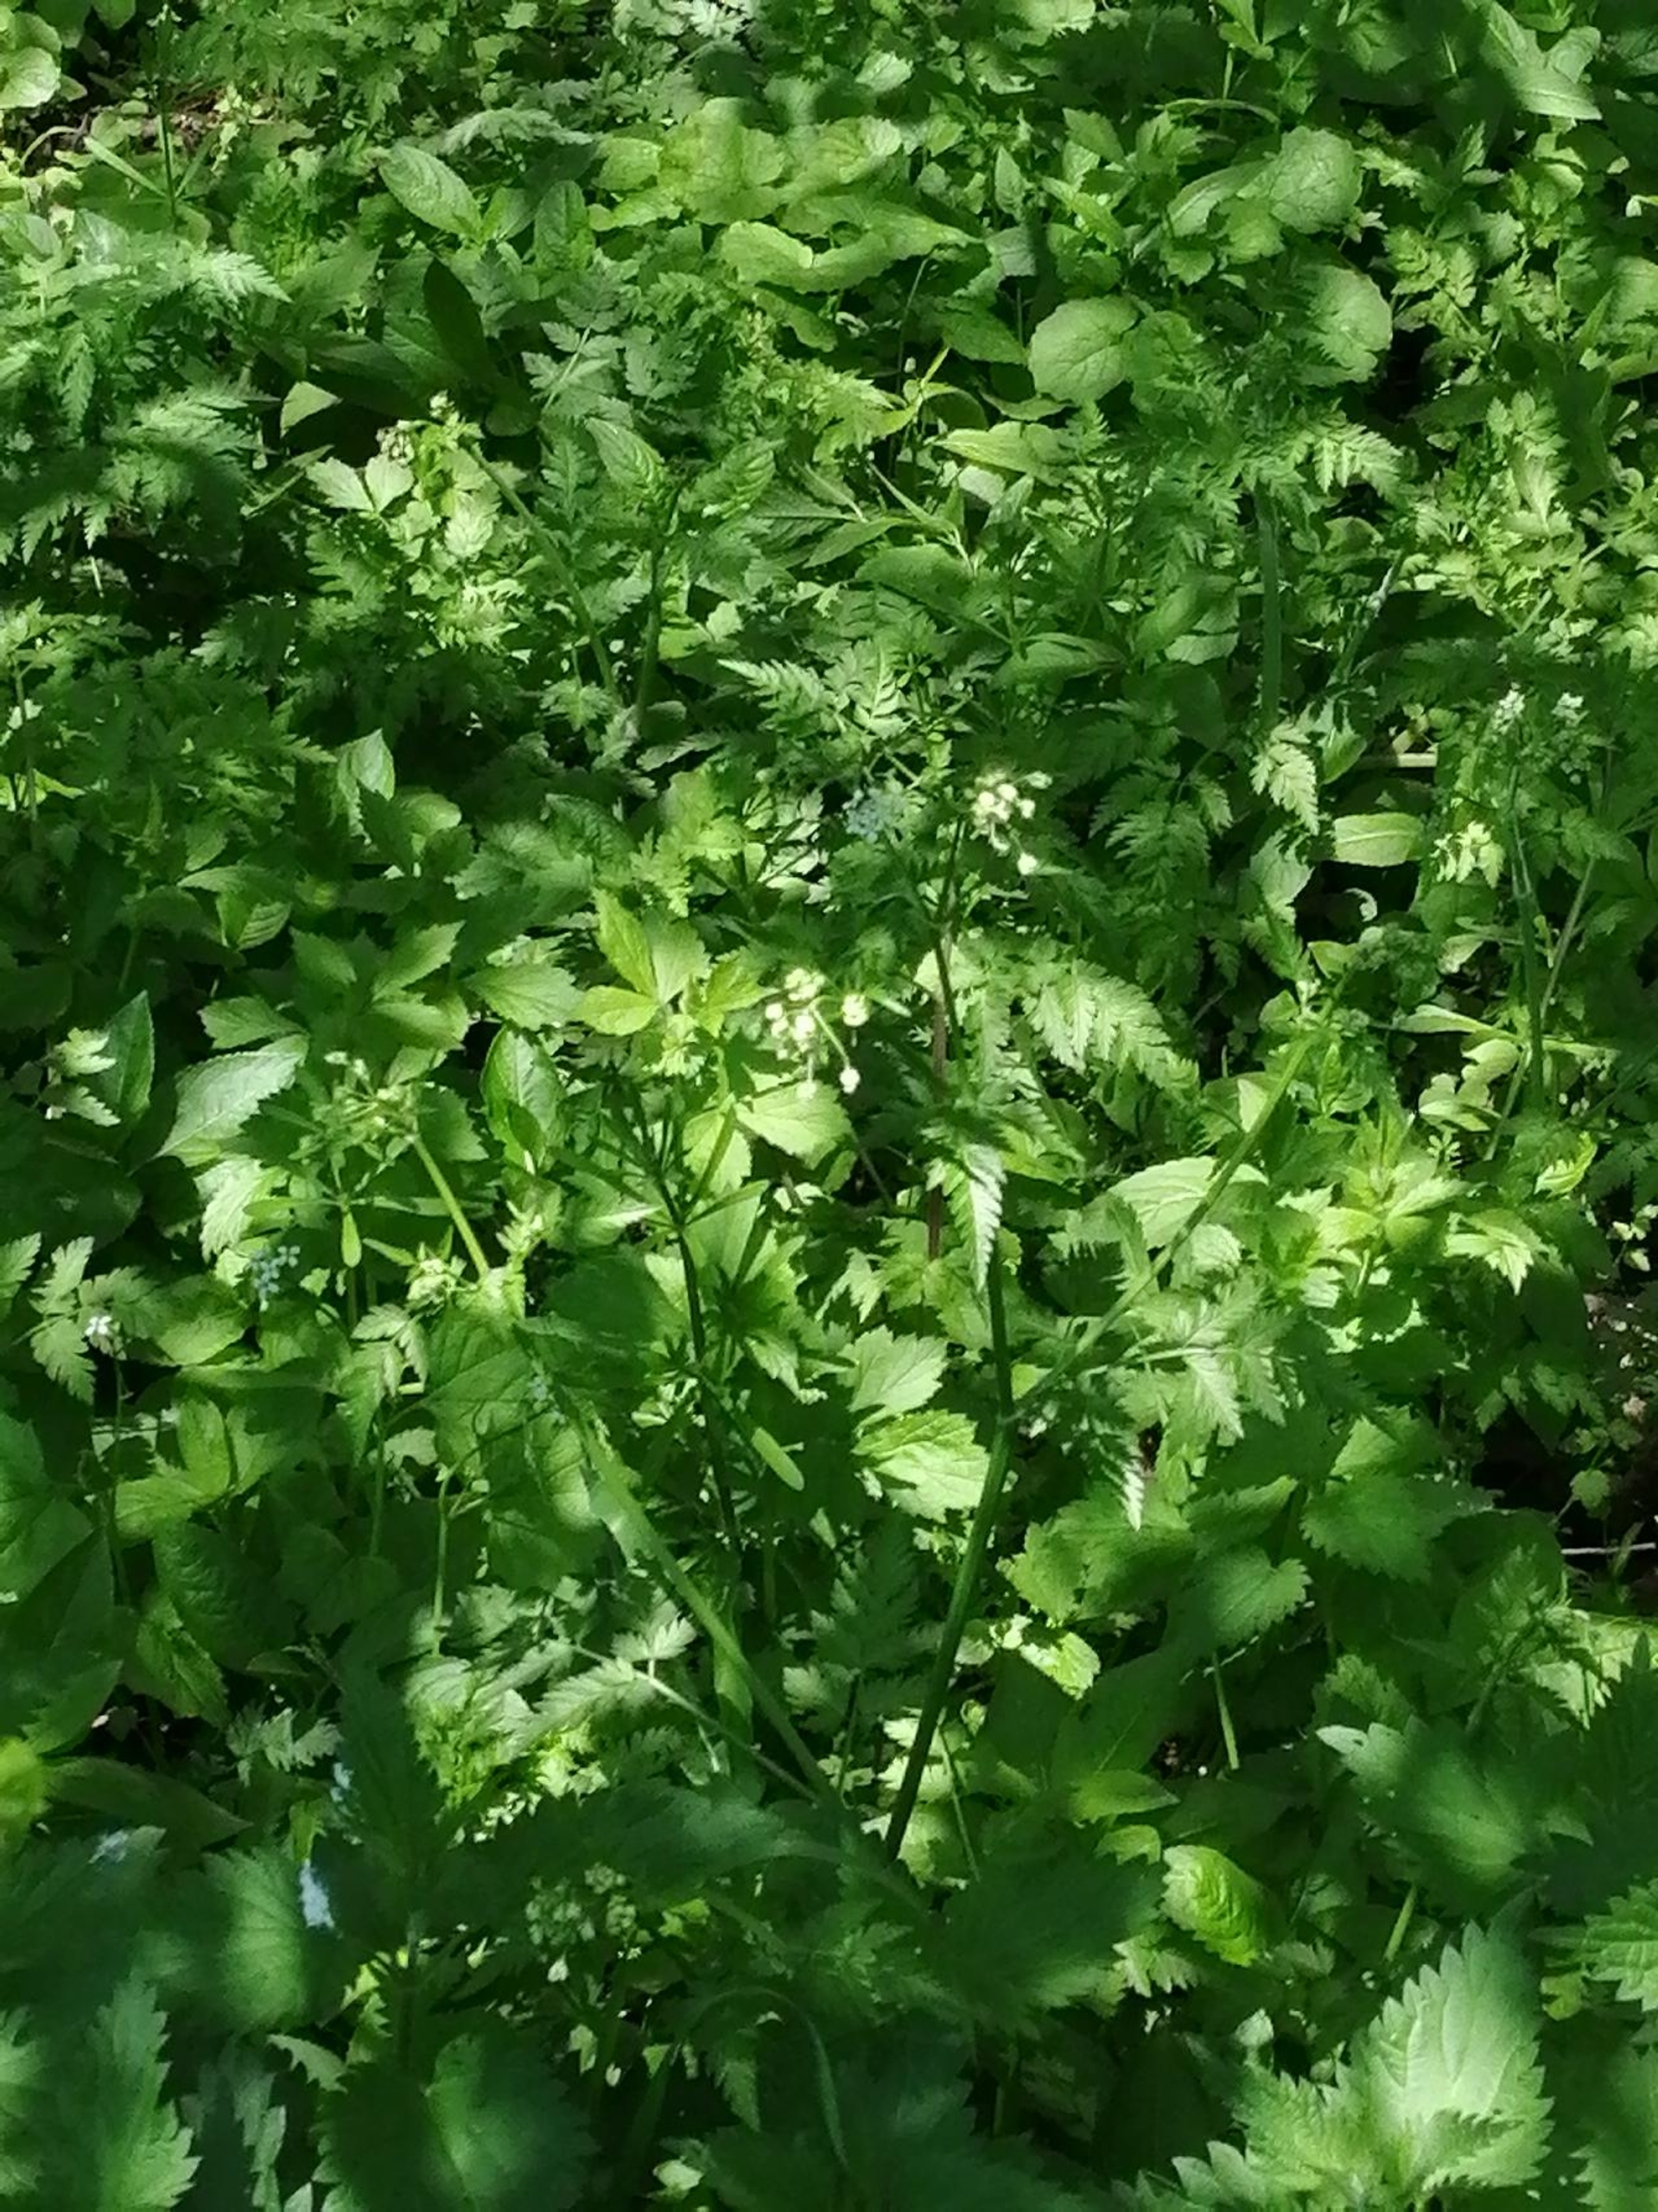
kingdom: Plantae
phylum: Tracheophyta
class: Magnoliopsida
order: Apiales
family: Apiaceae
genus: Anthriscus
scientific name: Anthriscus sylvestris
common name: Vild kørvel
